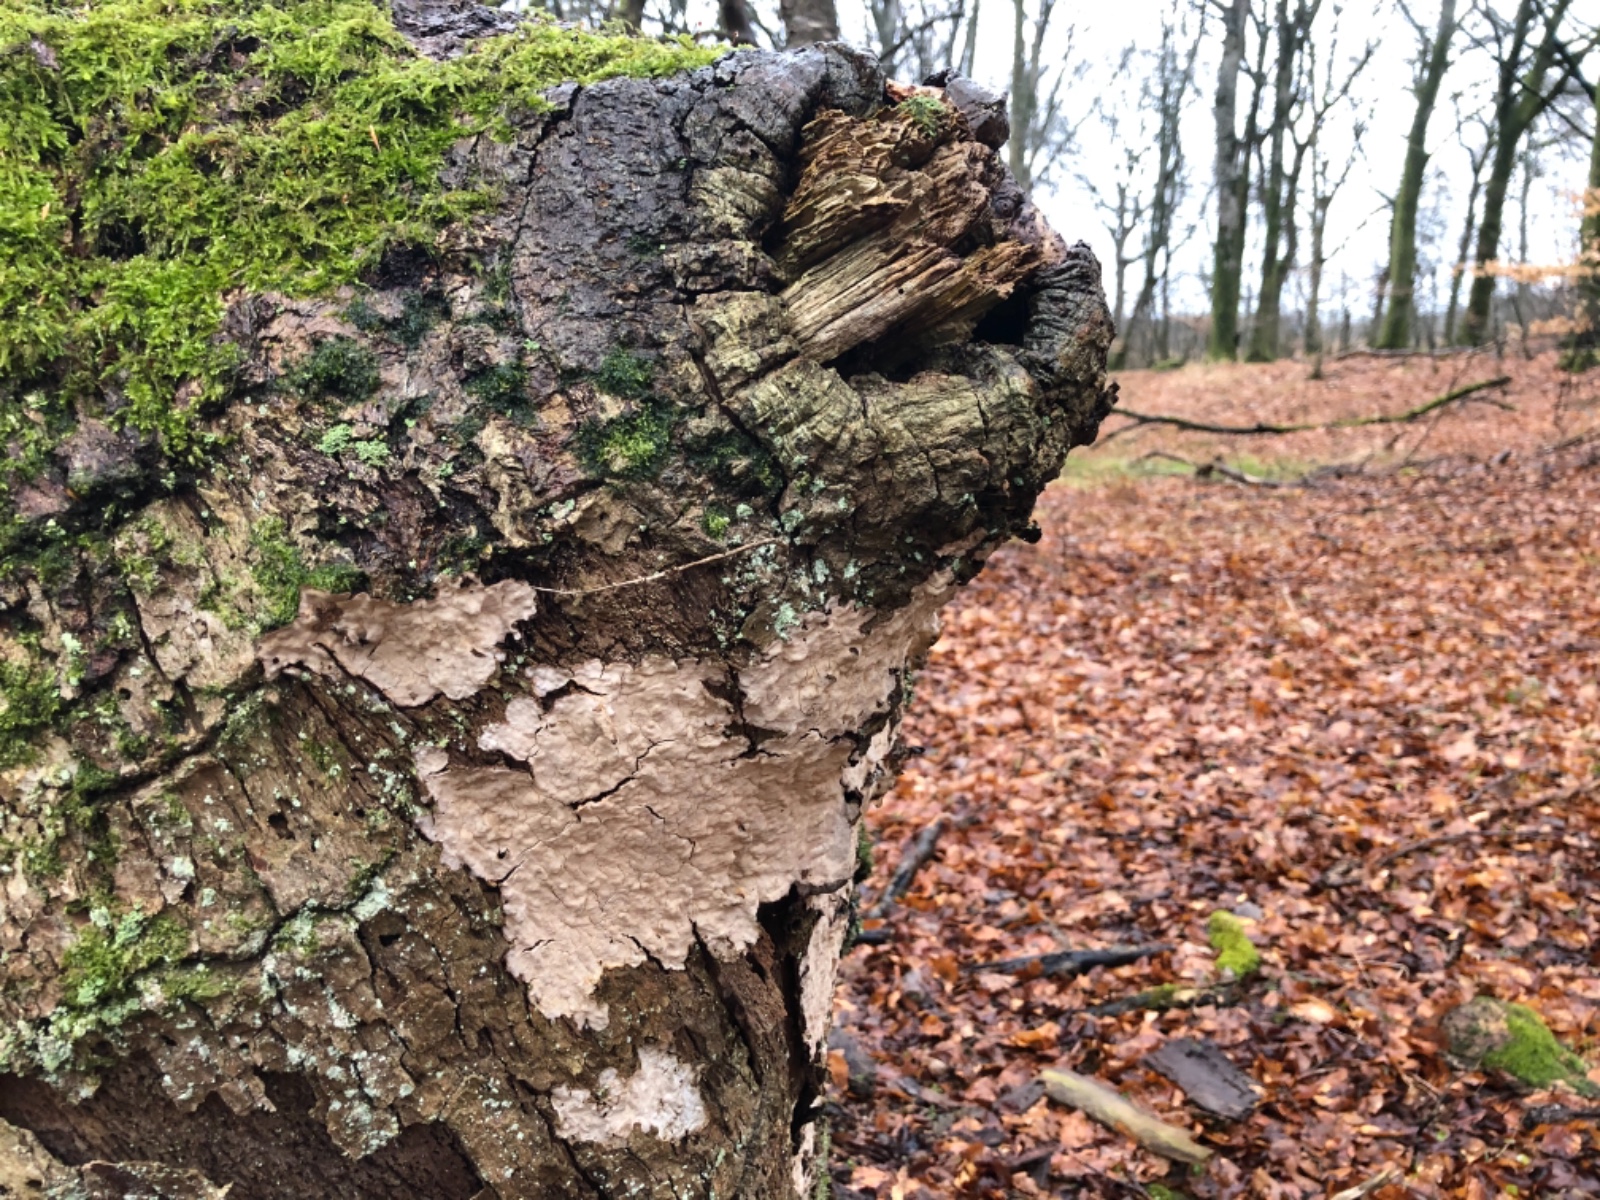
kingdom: Fungi
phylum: Basidiomycota
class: Agaricomycetes
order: Russulales
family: Stereaceae
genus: Stereum
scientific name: Stereum rugosum
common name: rynket lædersvamp
